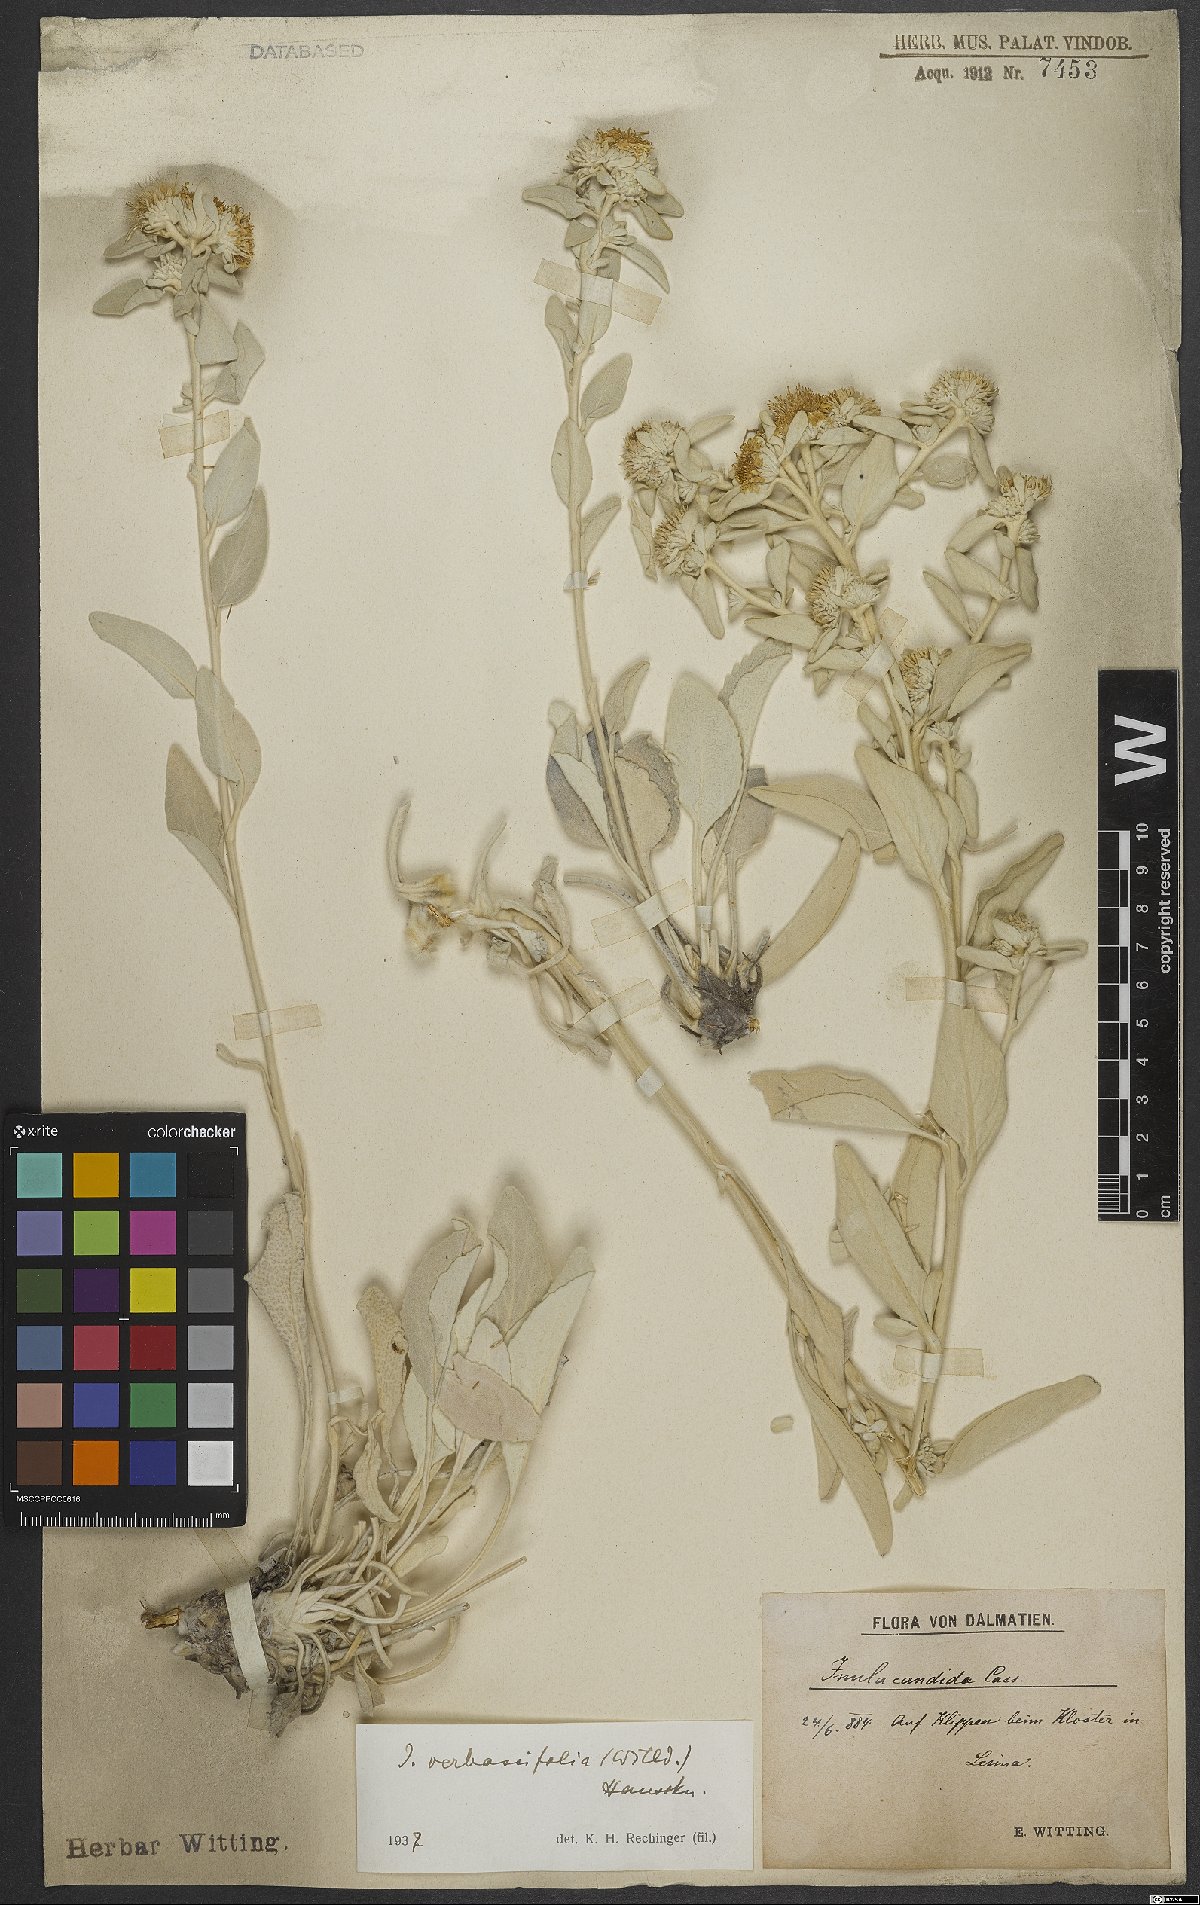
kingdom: Plantae
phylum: Tracheophyta
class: Magnoliopsida
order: Asterales
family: Asteraceae
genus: Pentanema
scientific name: Pentanema verbascifolium
